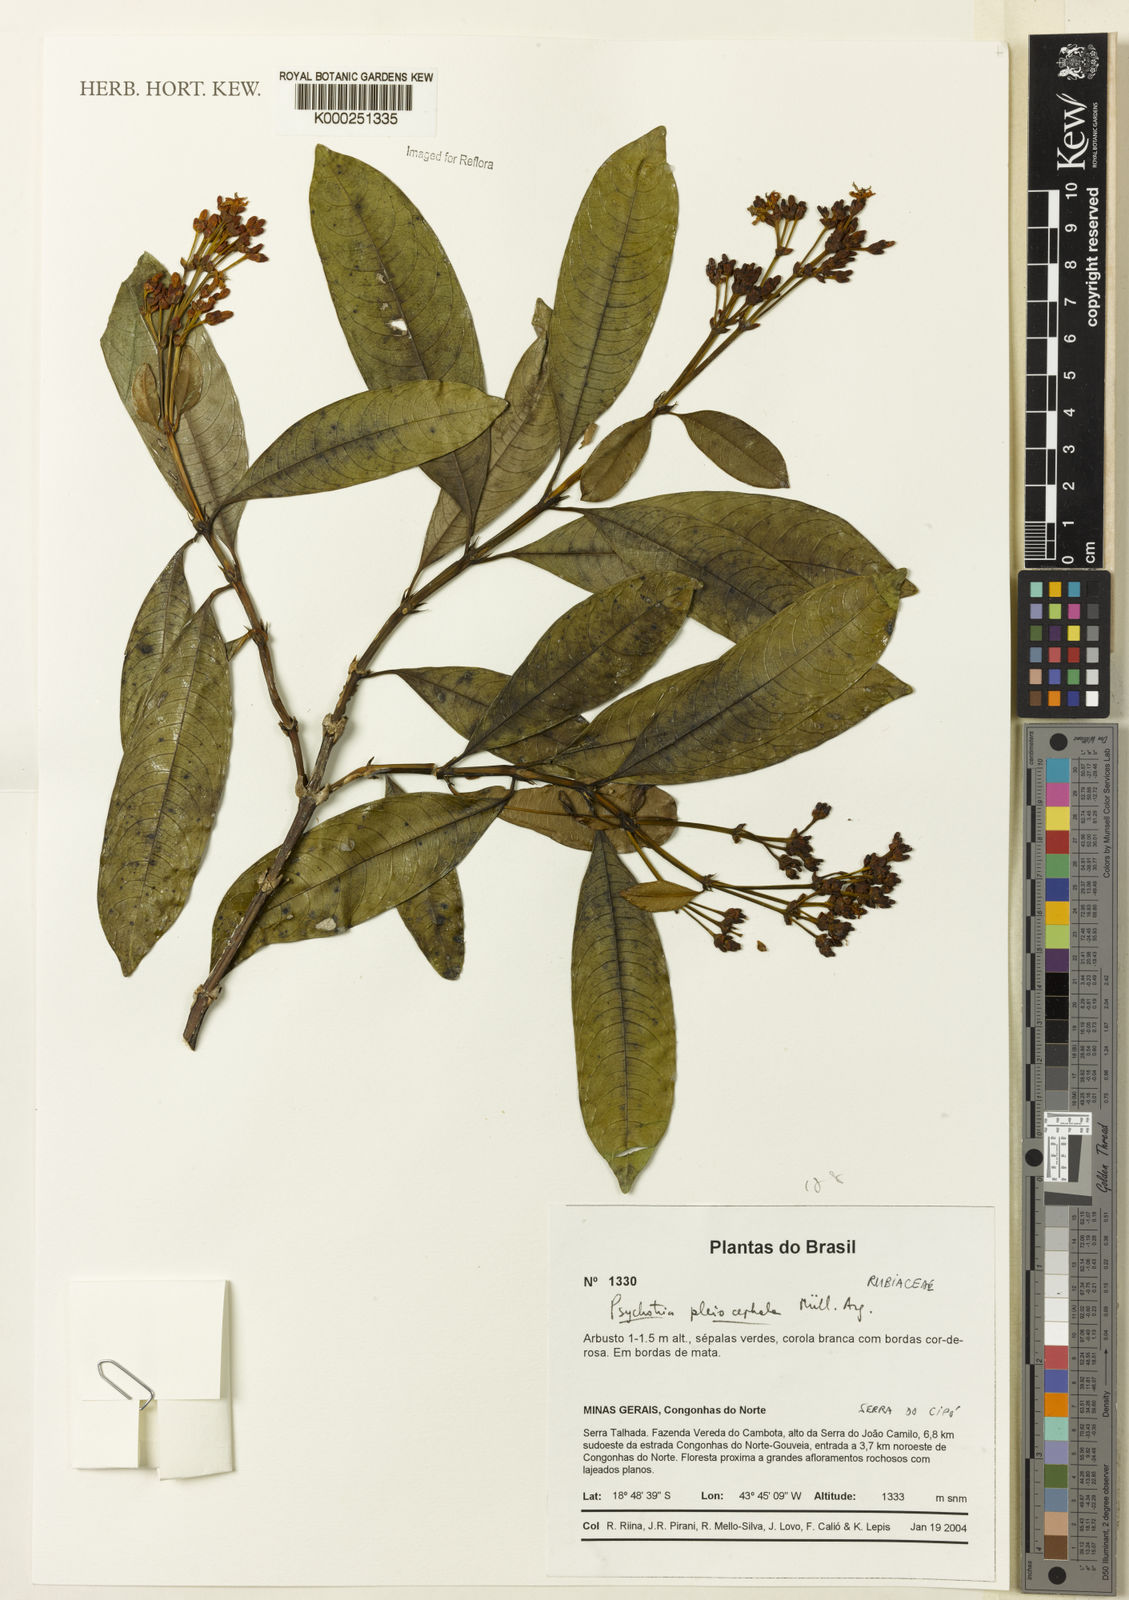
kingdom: Plantae
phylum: Tracheophyta
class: Magnoliopsida
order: Gentianales
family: Rubiaceae
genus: Palicourea
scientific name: Palicourea pleiocephala
